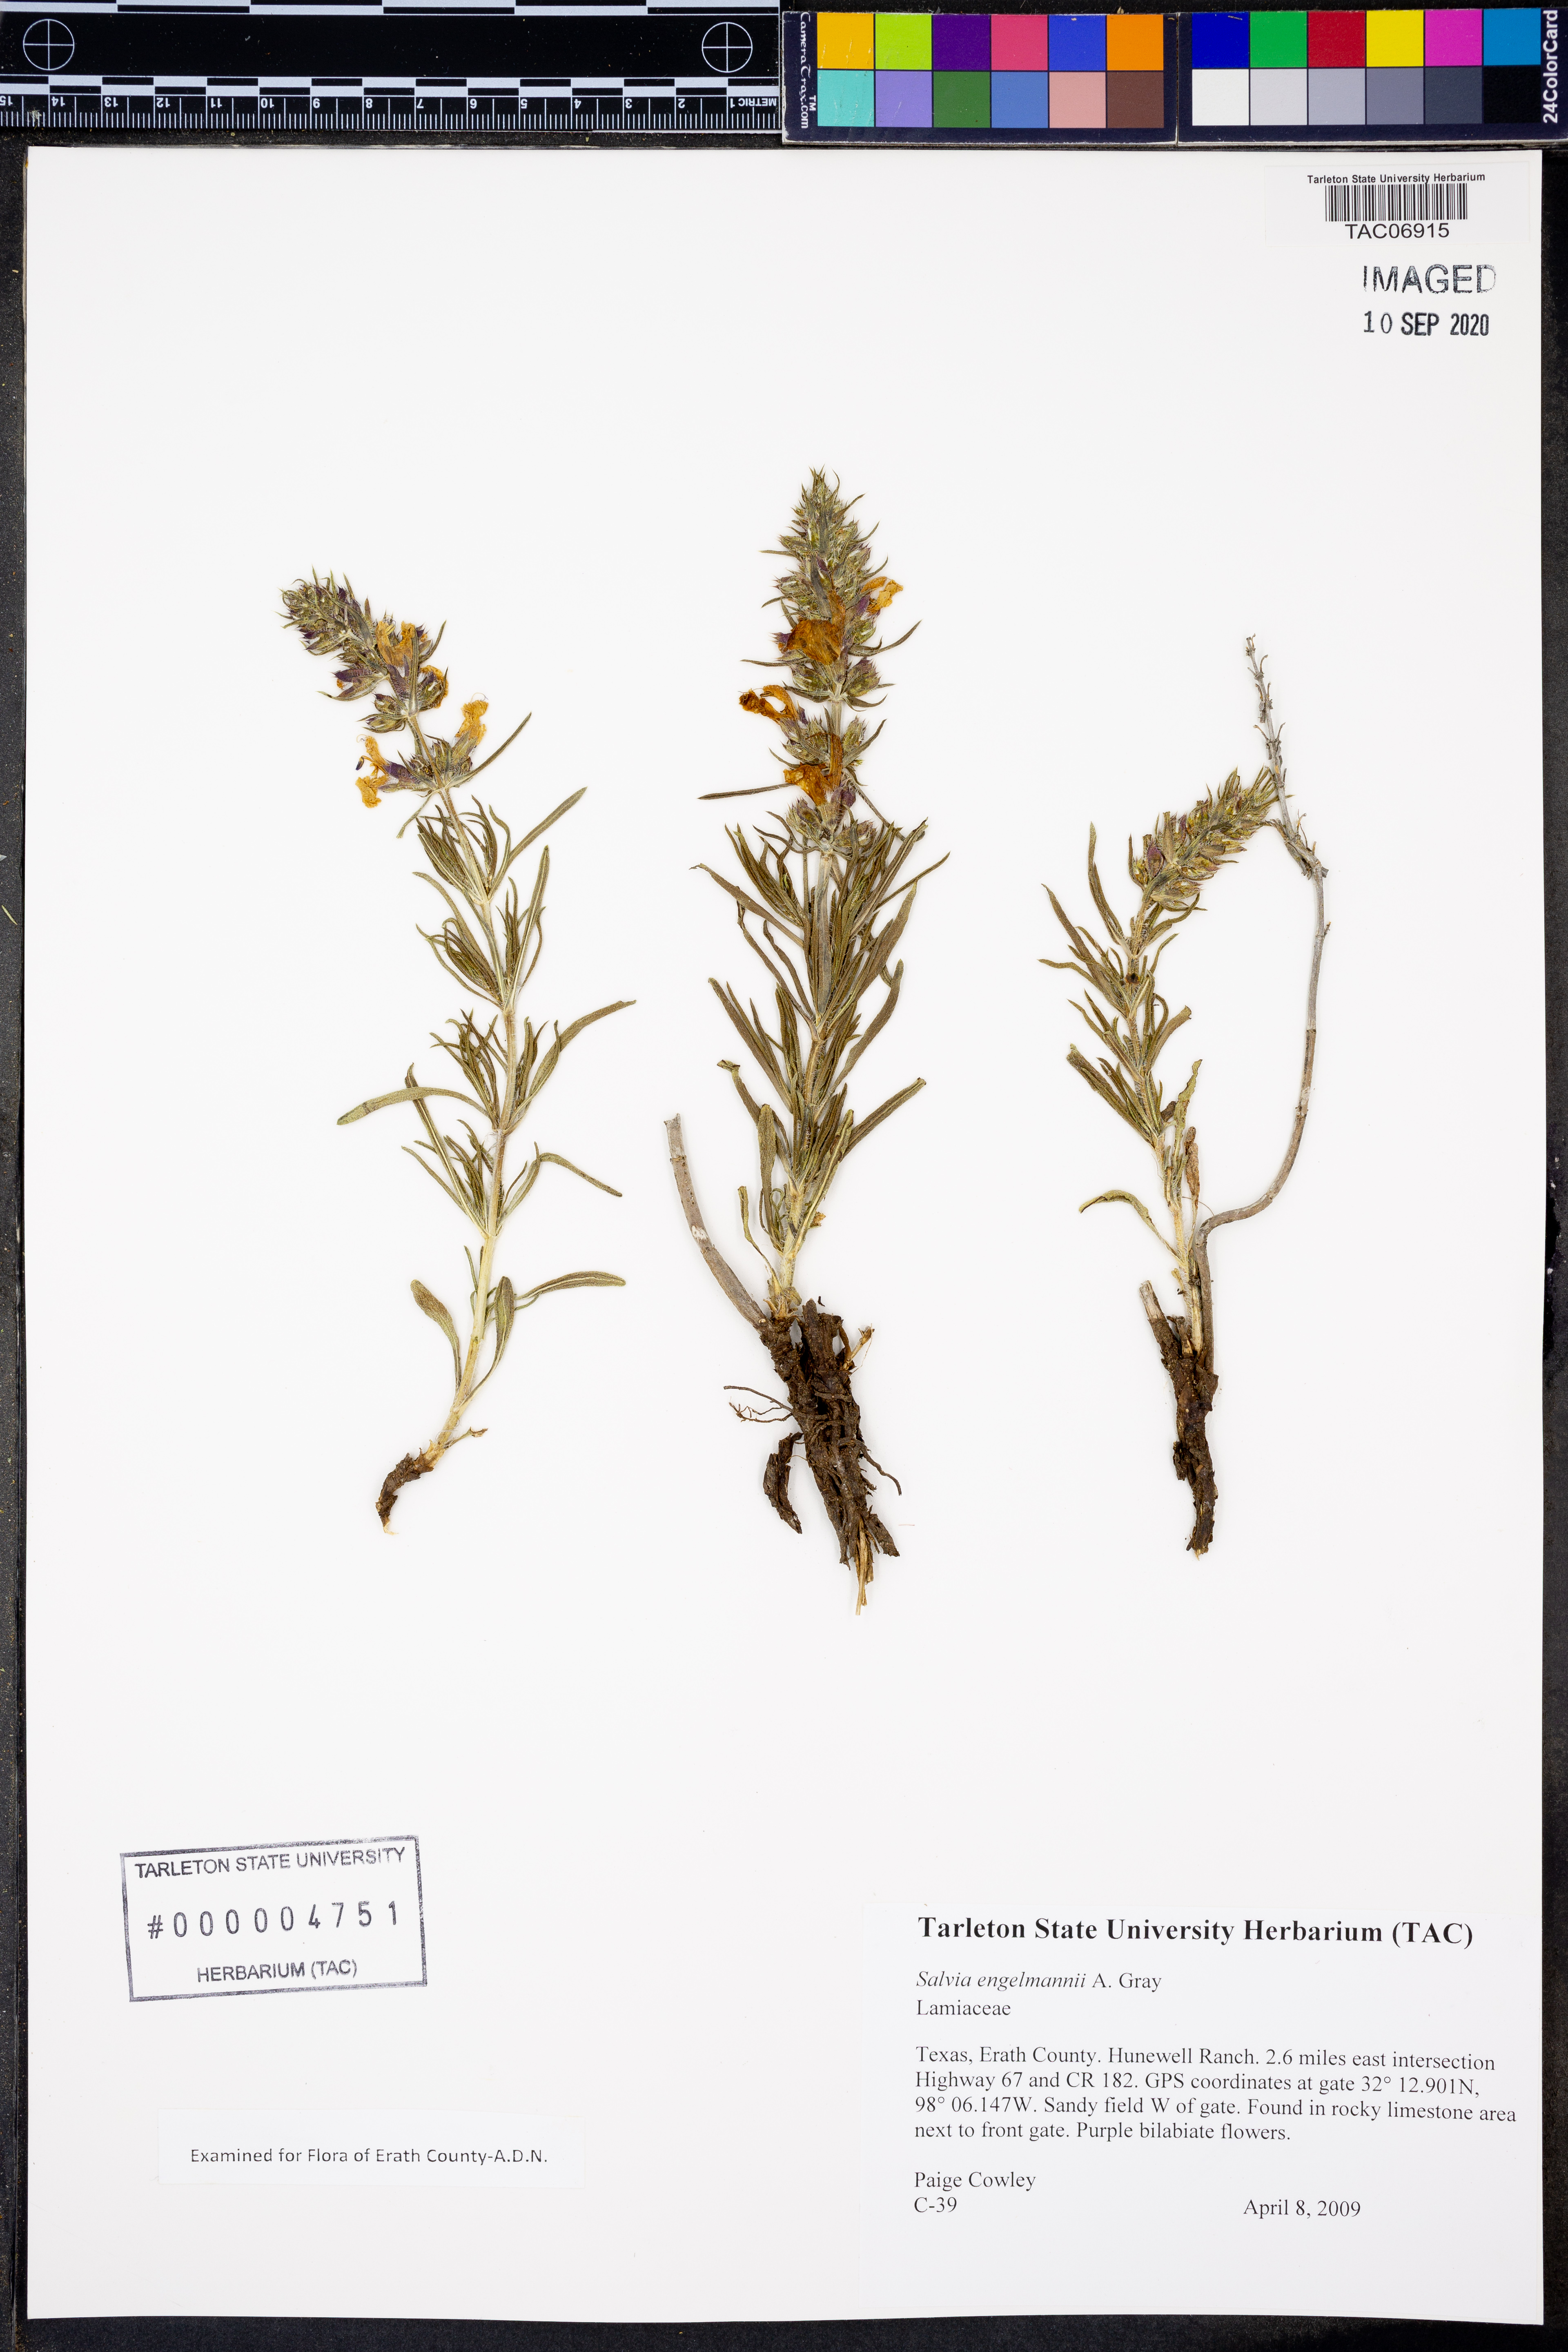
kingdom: Plantae
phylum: Tracheophyta
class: Magnoliopsida
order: Lamiales
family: Lamiaceae
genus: Salvia
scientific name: Salvia engelmannii
